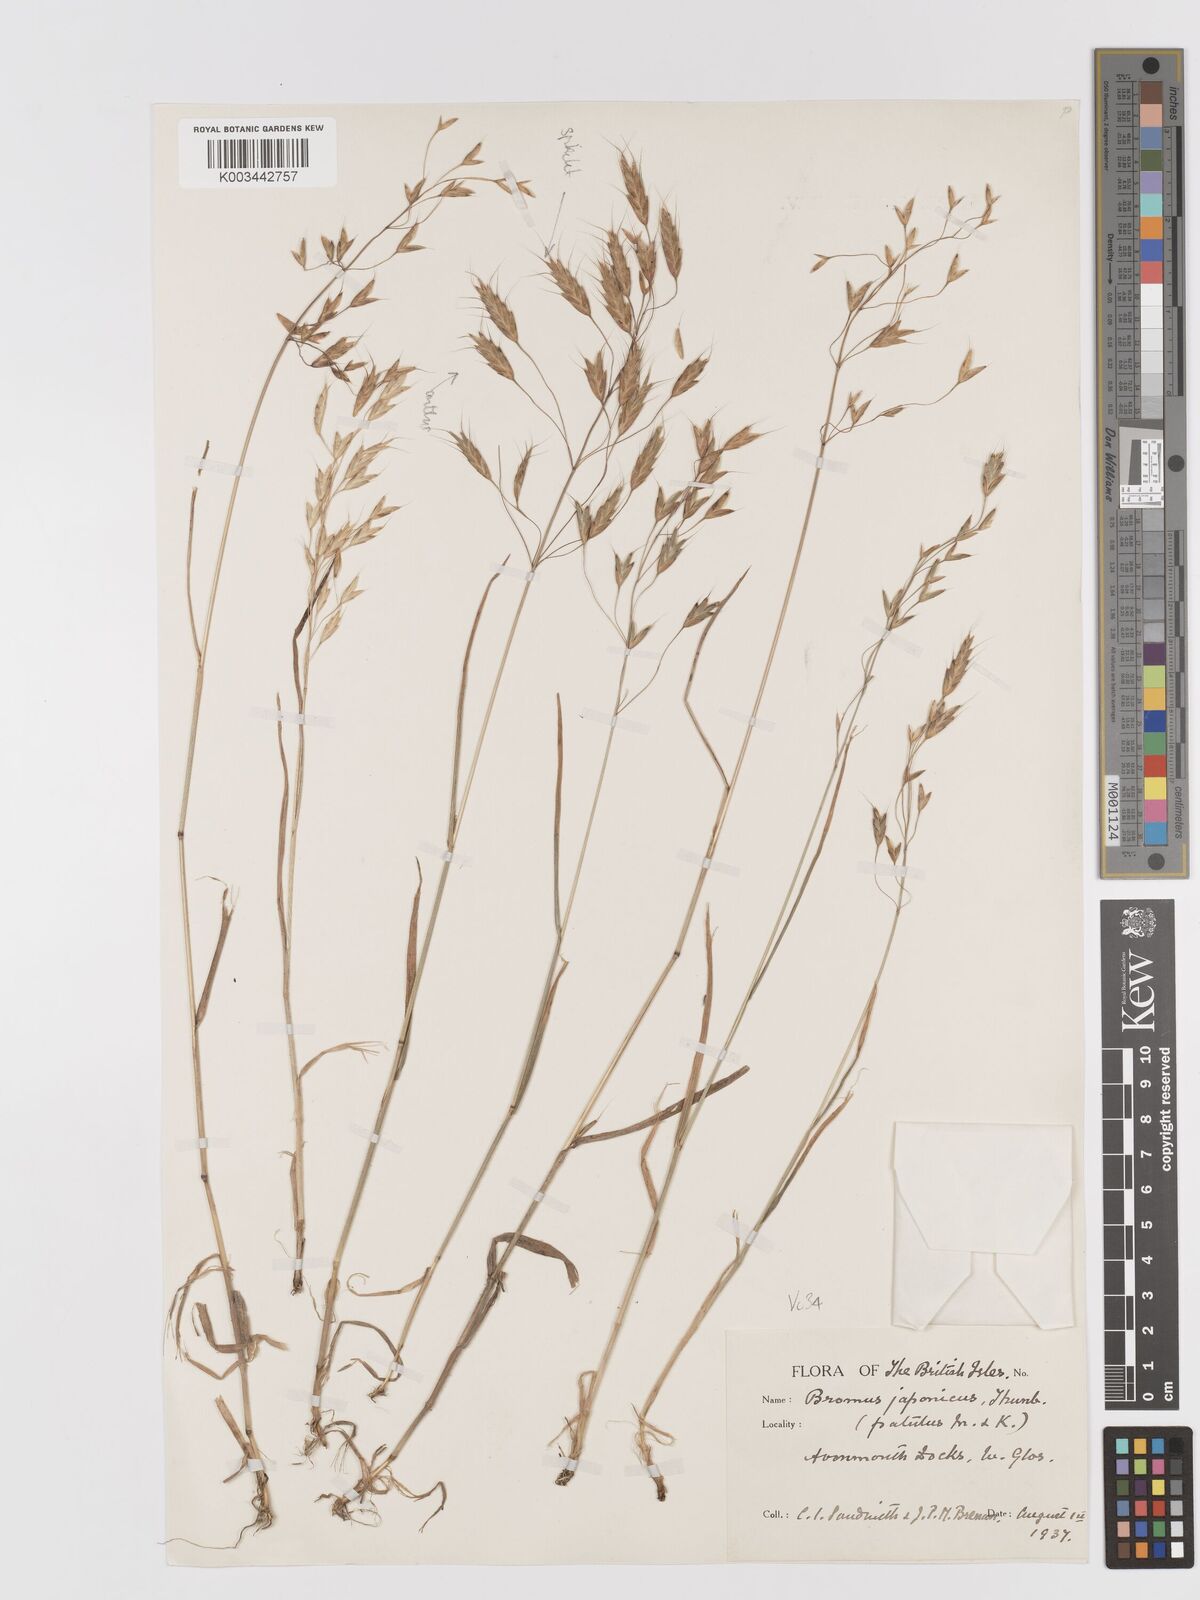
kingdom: Plantae
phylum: Tracheophyta
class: Liliopsida
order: Poales
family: Poaceae
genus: Bromus
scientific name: Bromus japonicus
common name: Japanese brome
